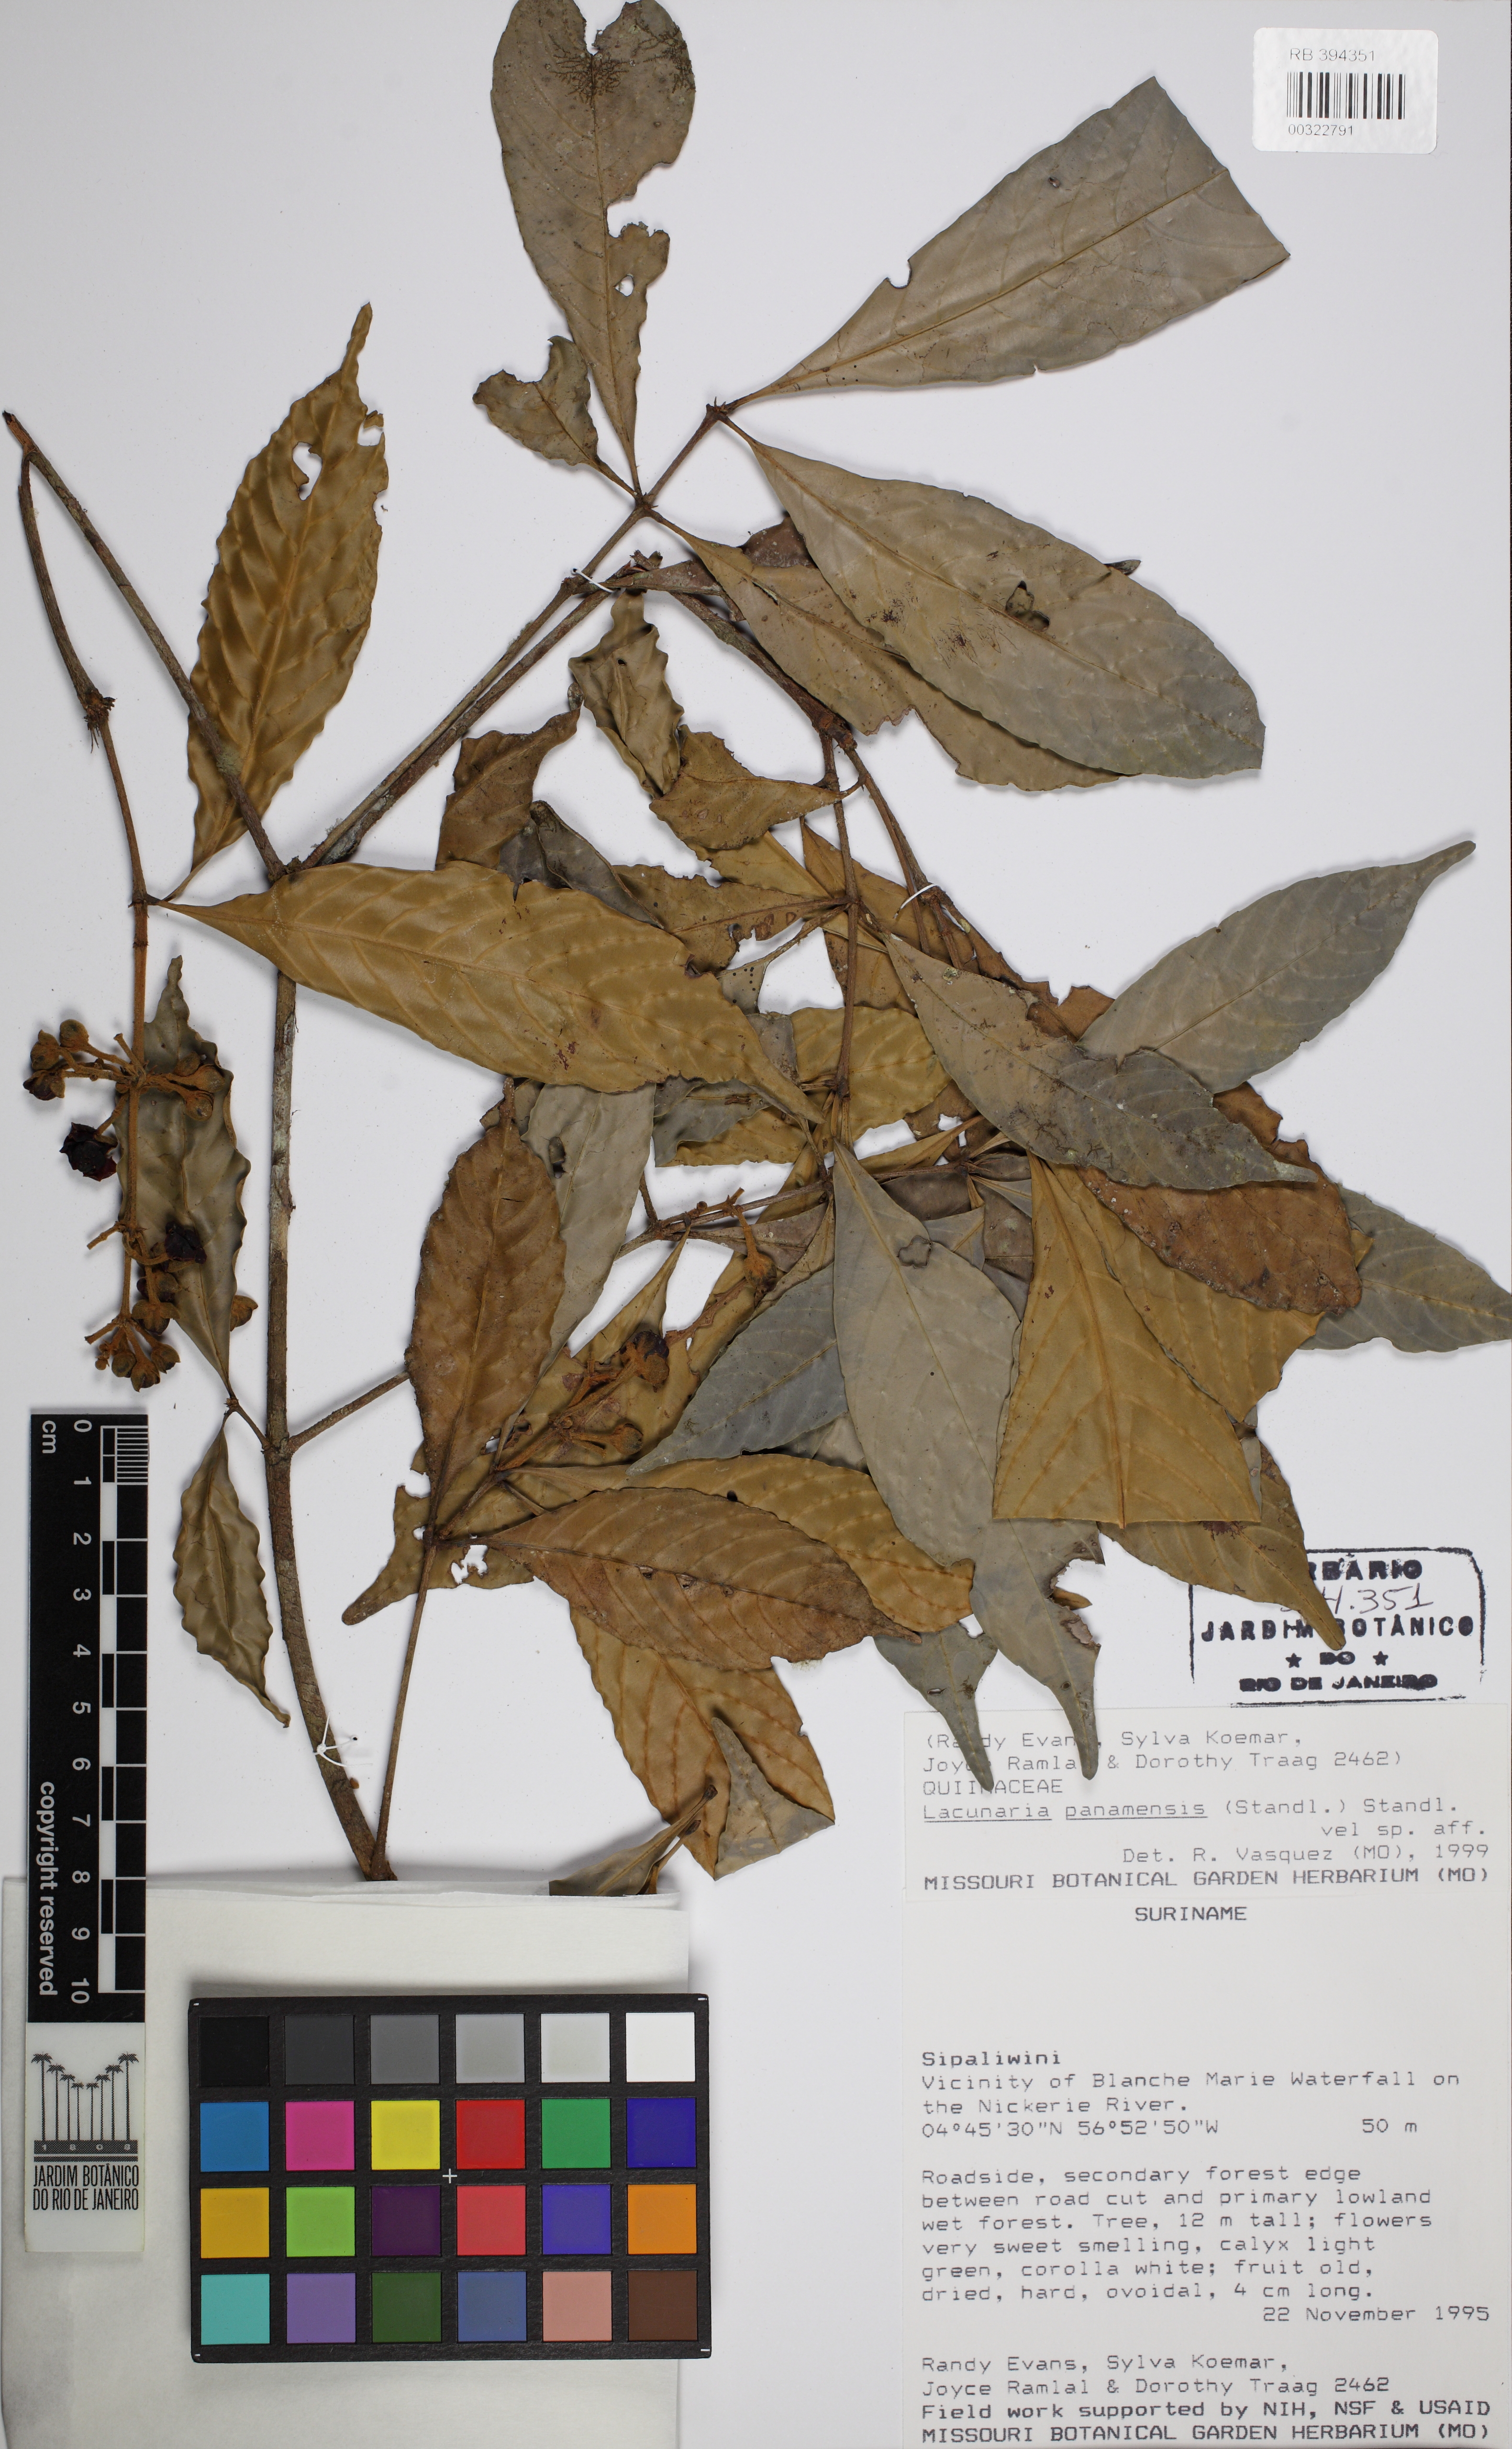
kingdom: Plantae
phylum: Tracheophyta
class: Magnoliopsida
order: Malpighiales
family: Quiinaceae
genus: Lacunaria
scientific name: Lacunaria crenata
